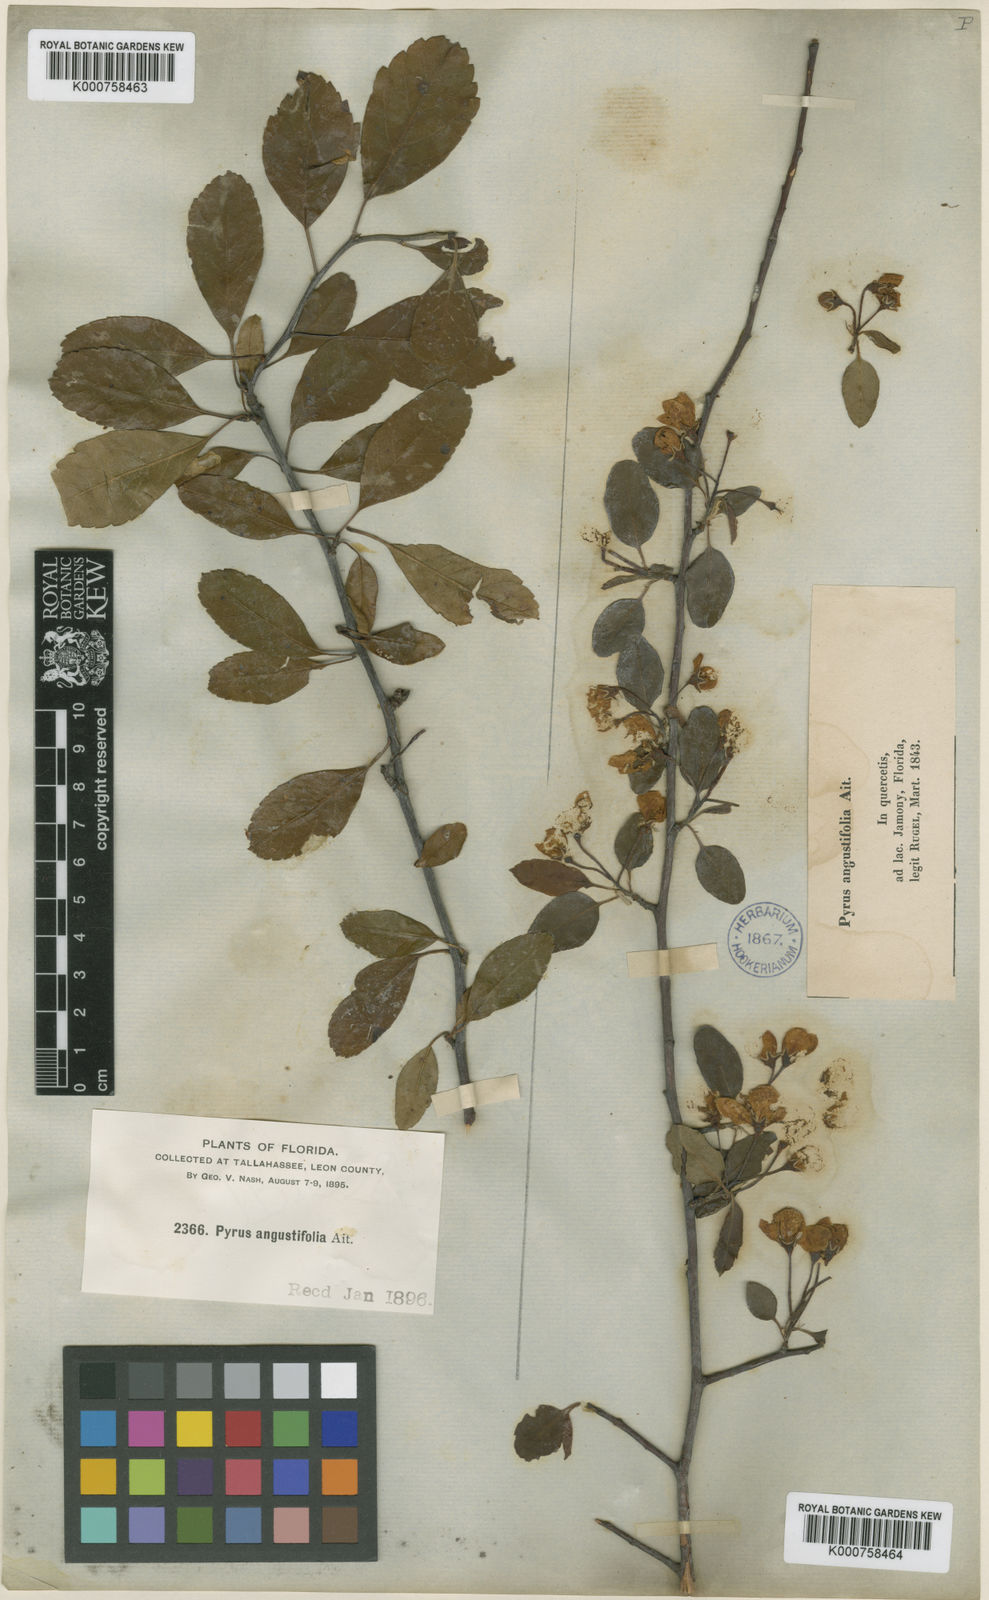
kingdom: Plantae
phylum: Tracheophyta
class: Magnoliopsida
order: Rosales
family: Rosaceae
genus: Malus
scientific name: Malus angustifolia
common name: Southern crab apple
